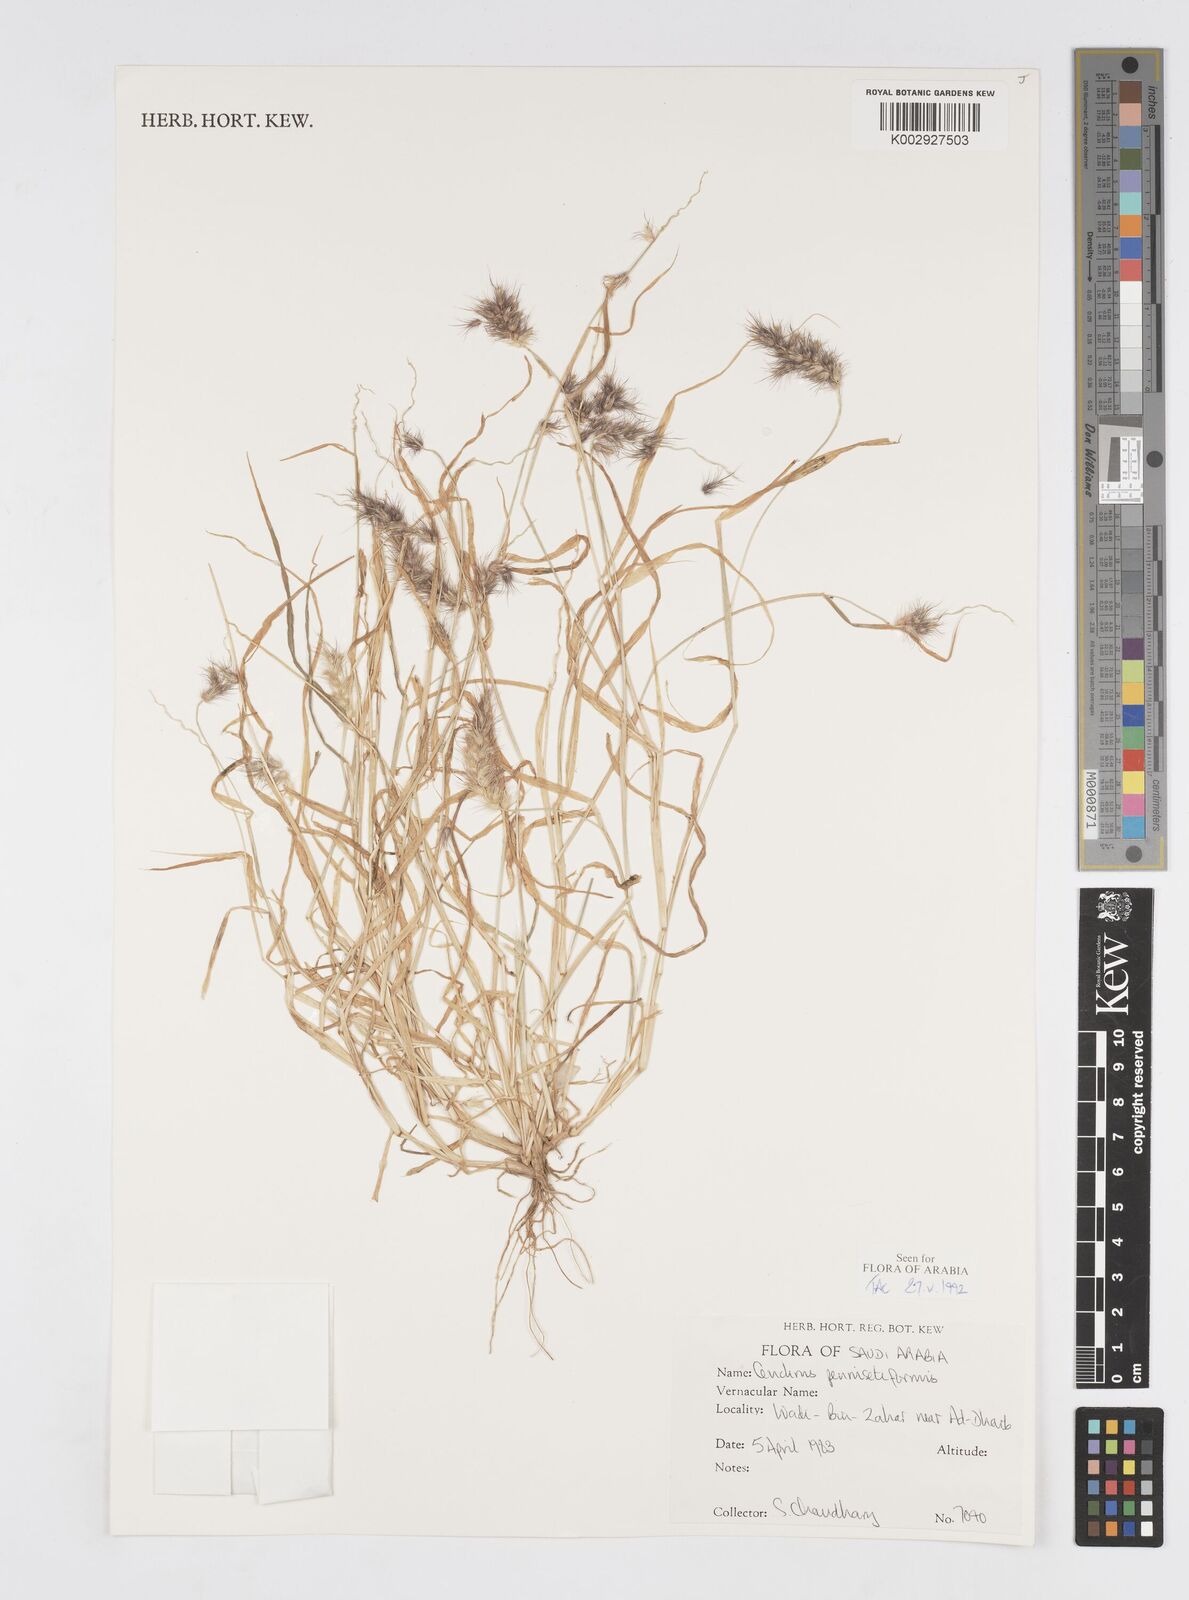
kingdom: Plantae
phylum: Tracheophyta
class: Liliopsida
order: Poales
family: Poaceae
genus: Cenchrus
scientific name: Cenchrus
